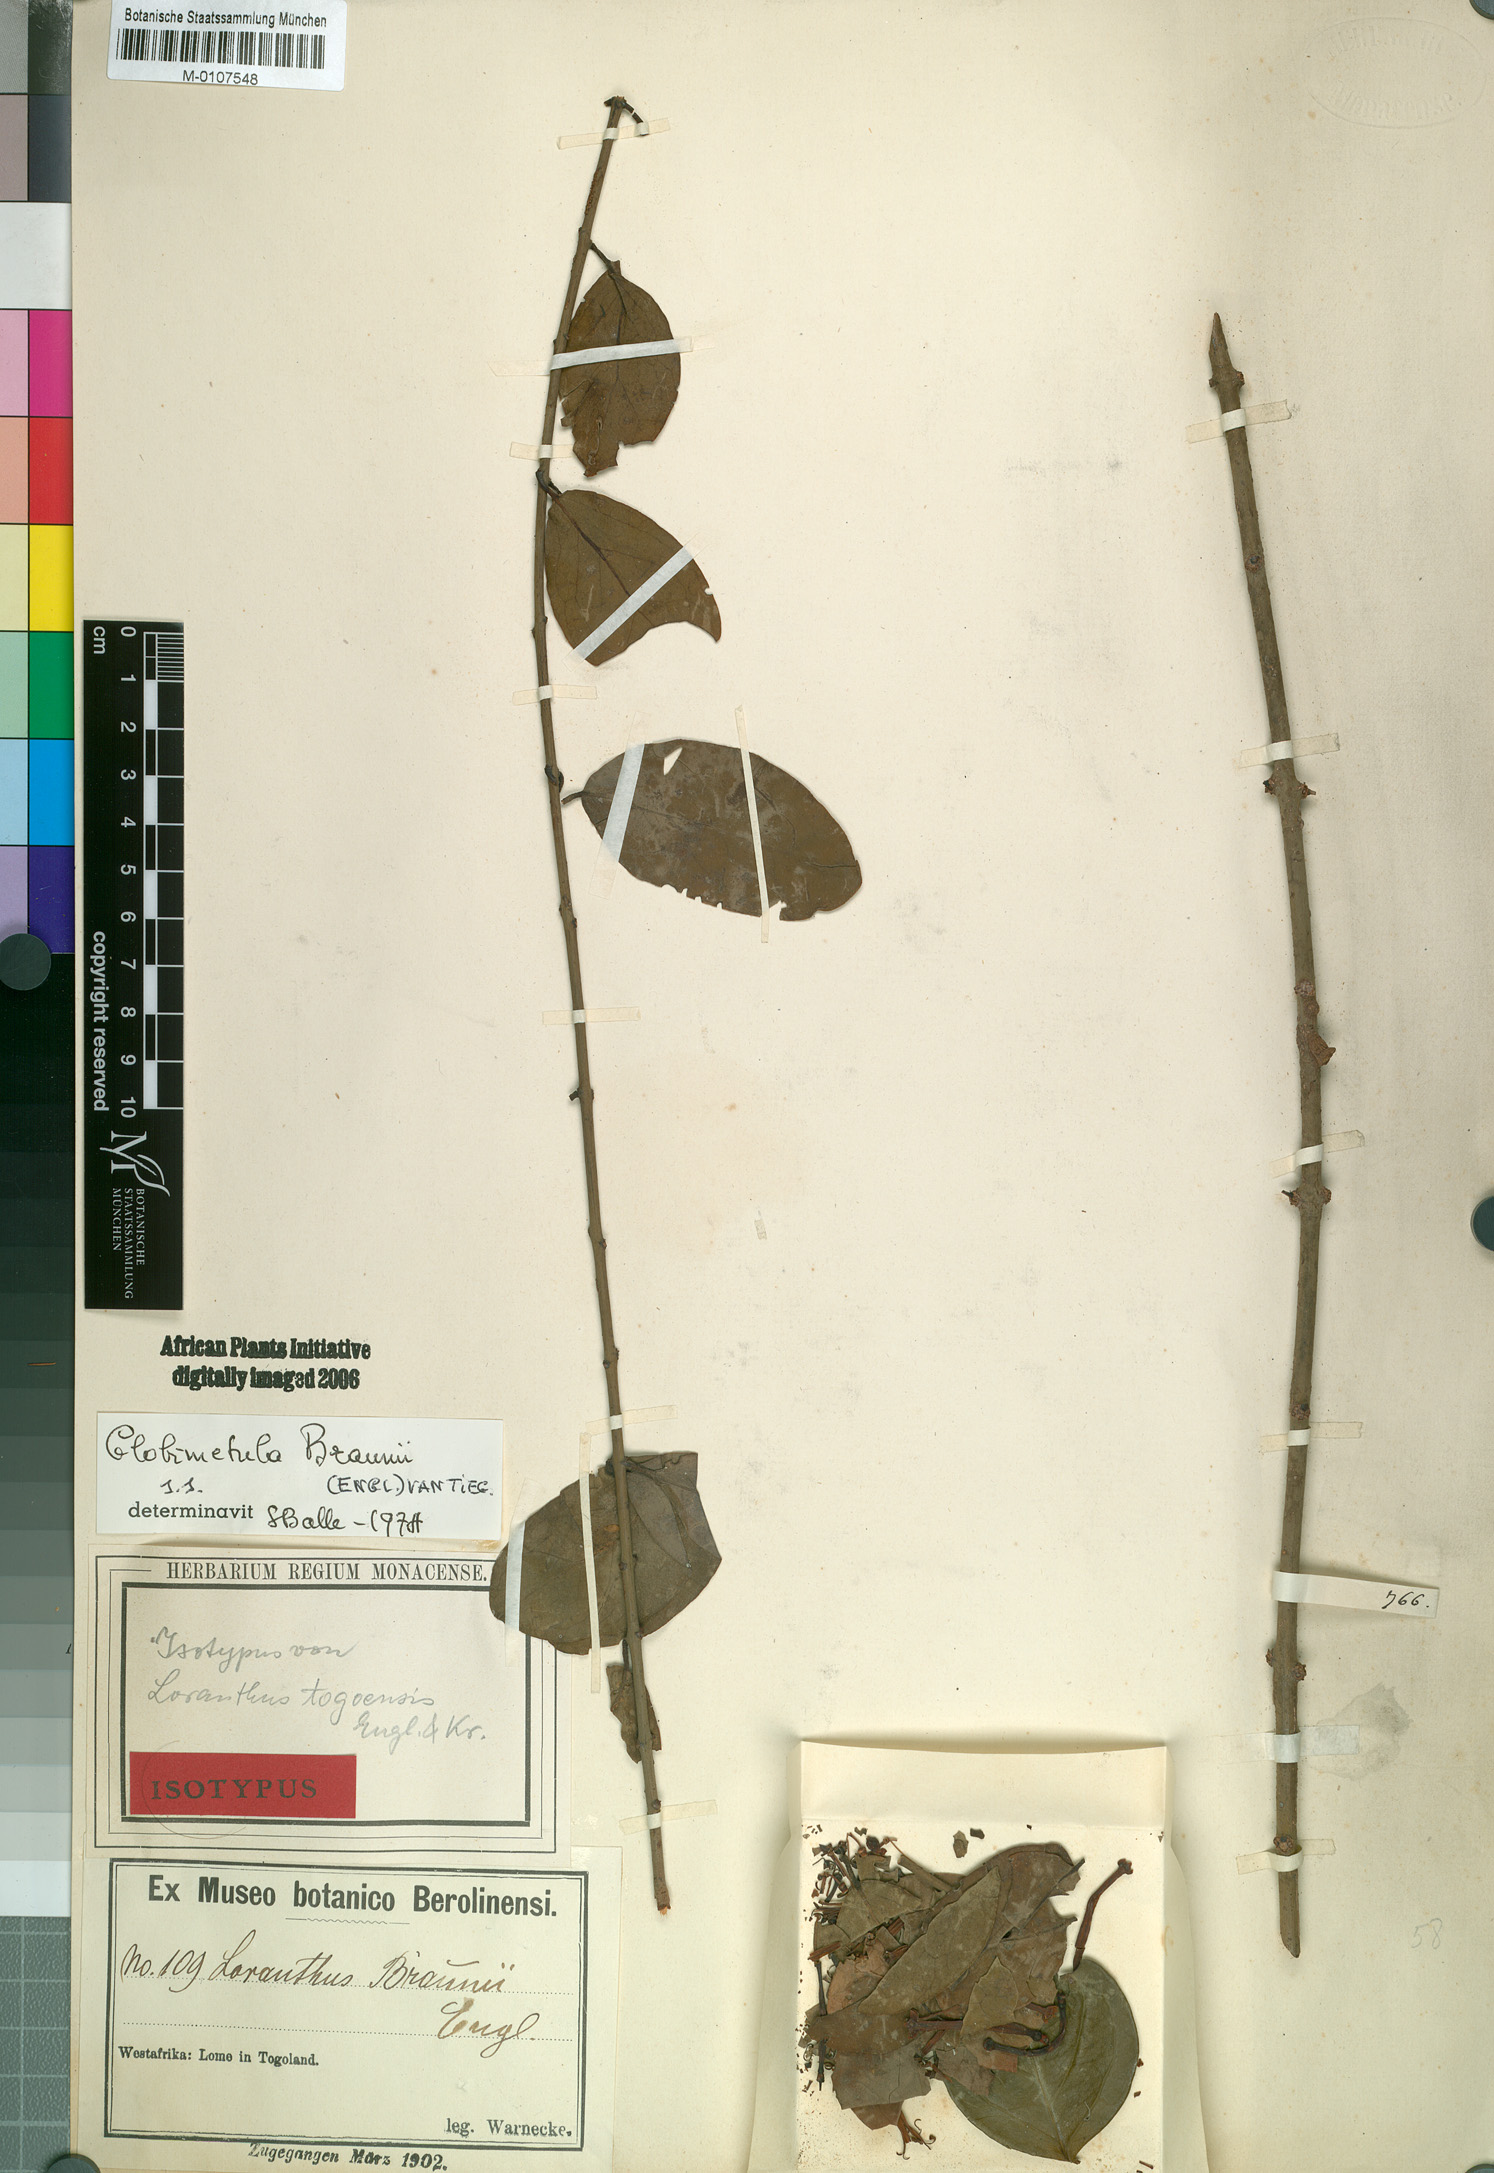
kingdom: Plantae
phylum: Tracheophyta
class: Magnoliopsida
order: Santalales
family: Loranthaceae
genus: Globimetula
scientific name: Globimetula braunii
